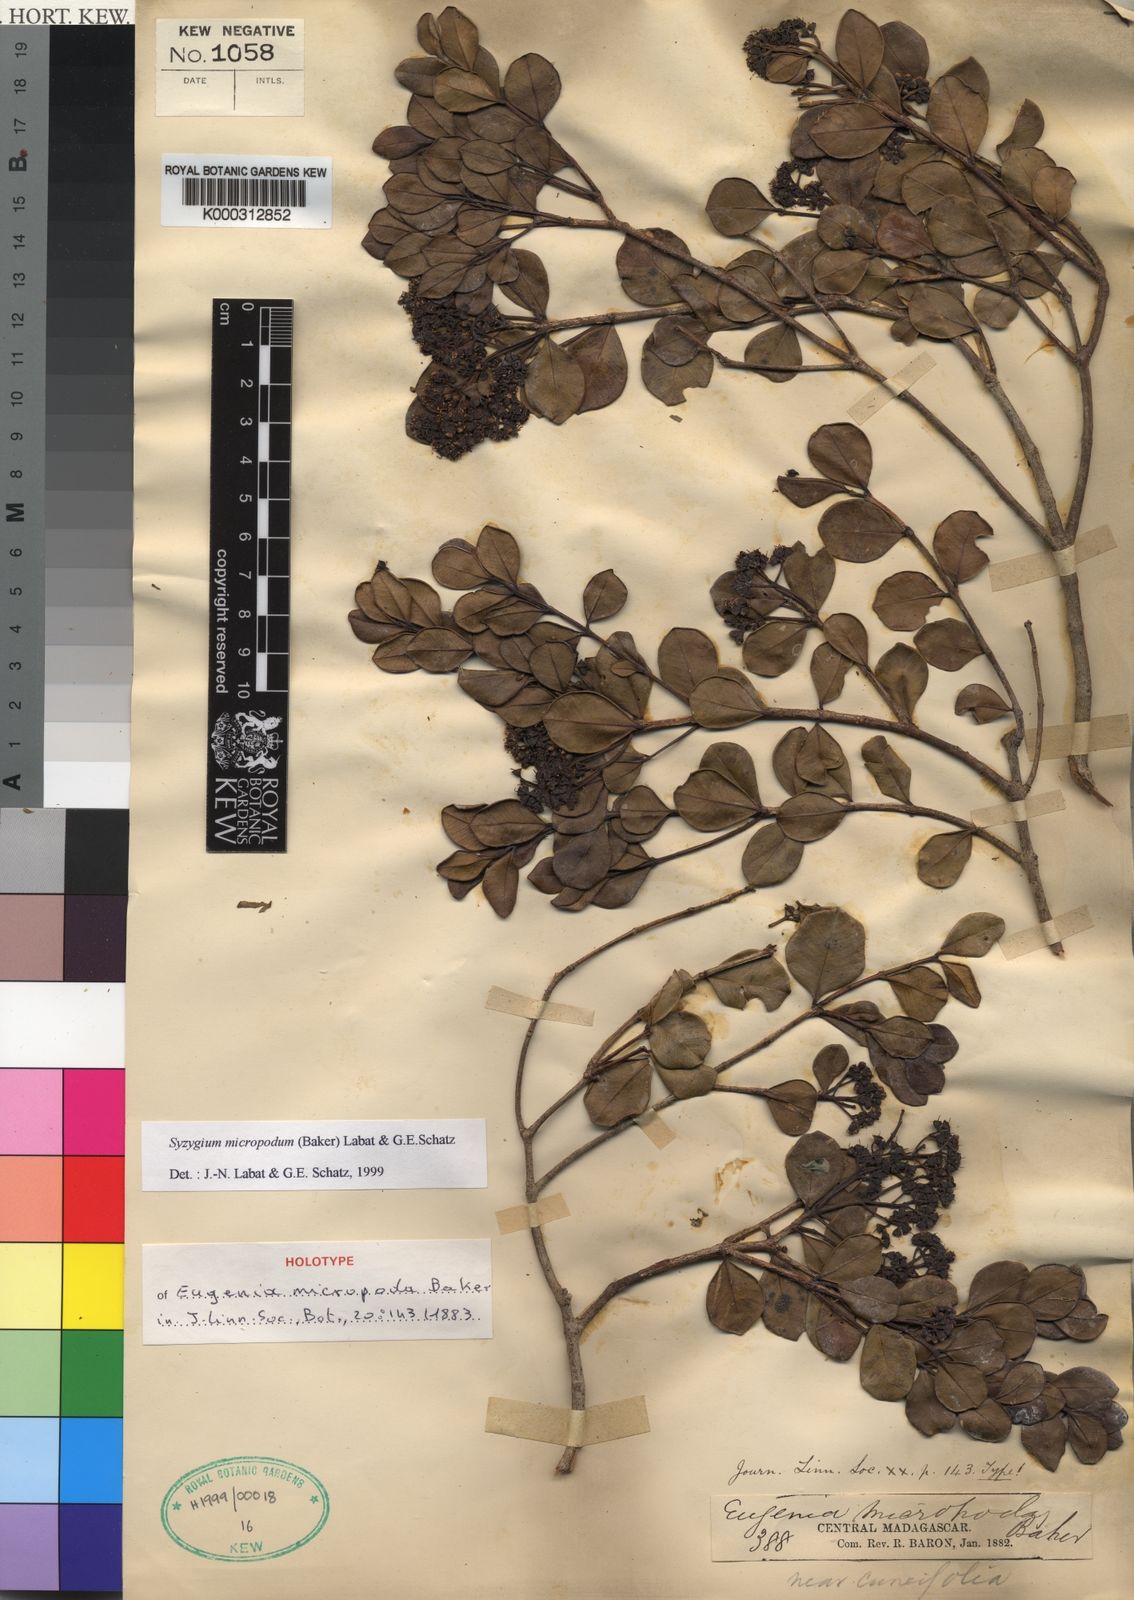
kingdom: Plantae
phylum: Tracheophyta
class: Magnoliopsida
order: Myrtales
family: Myrtaceae
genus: Syzygium
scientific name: Syzygium
